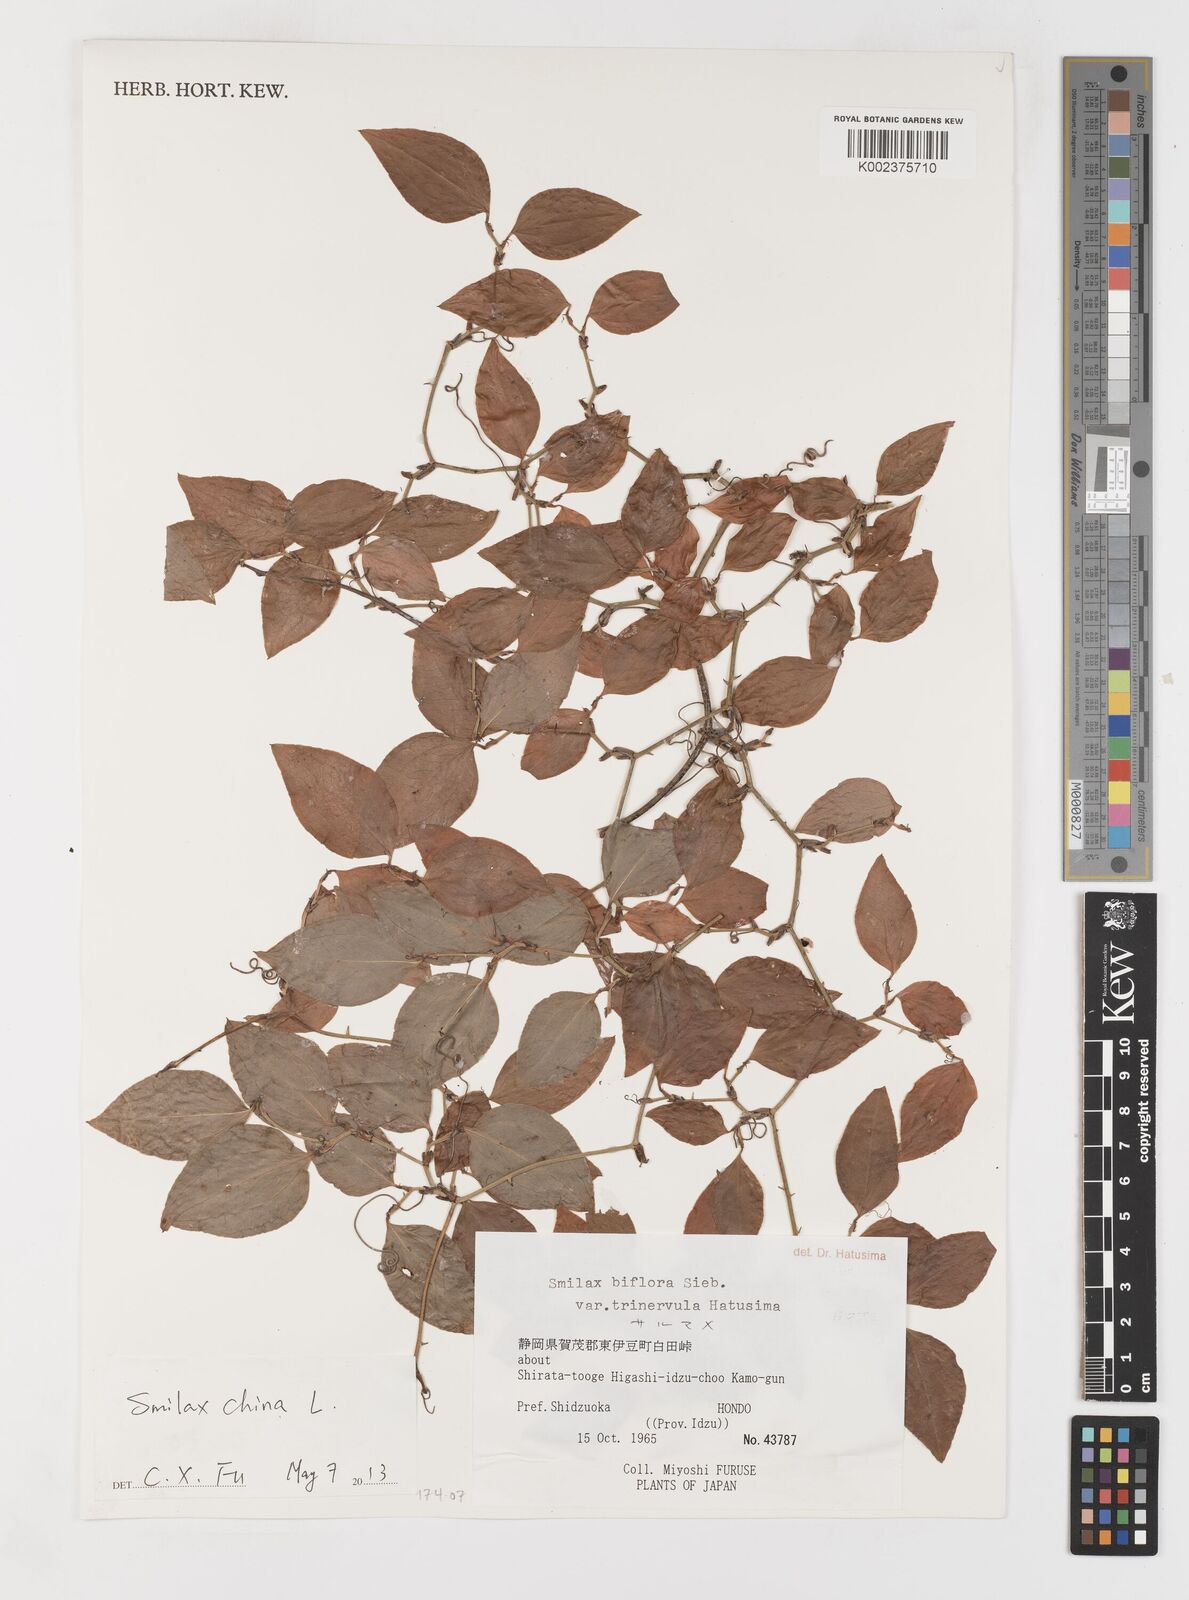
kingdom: Plantae
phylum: Tracheophyta
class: Liliopsida
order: Liliales
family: Smilacaceae
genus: Smilax
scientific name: Smilax china
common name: Chinaroot
